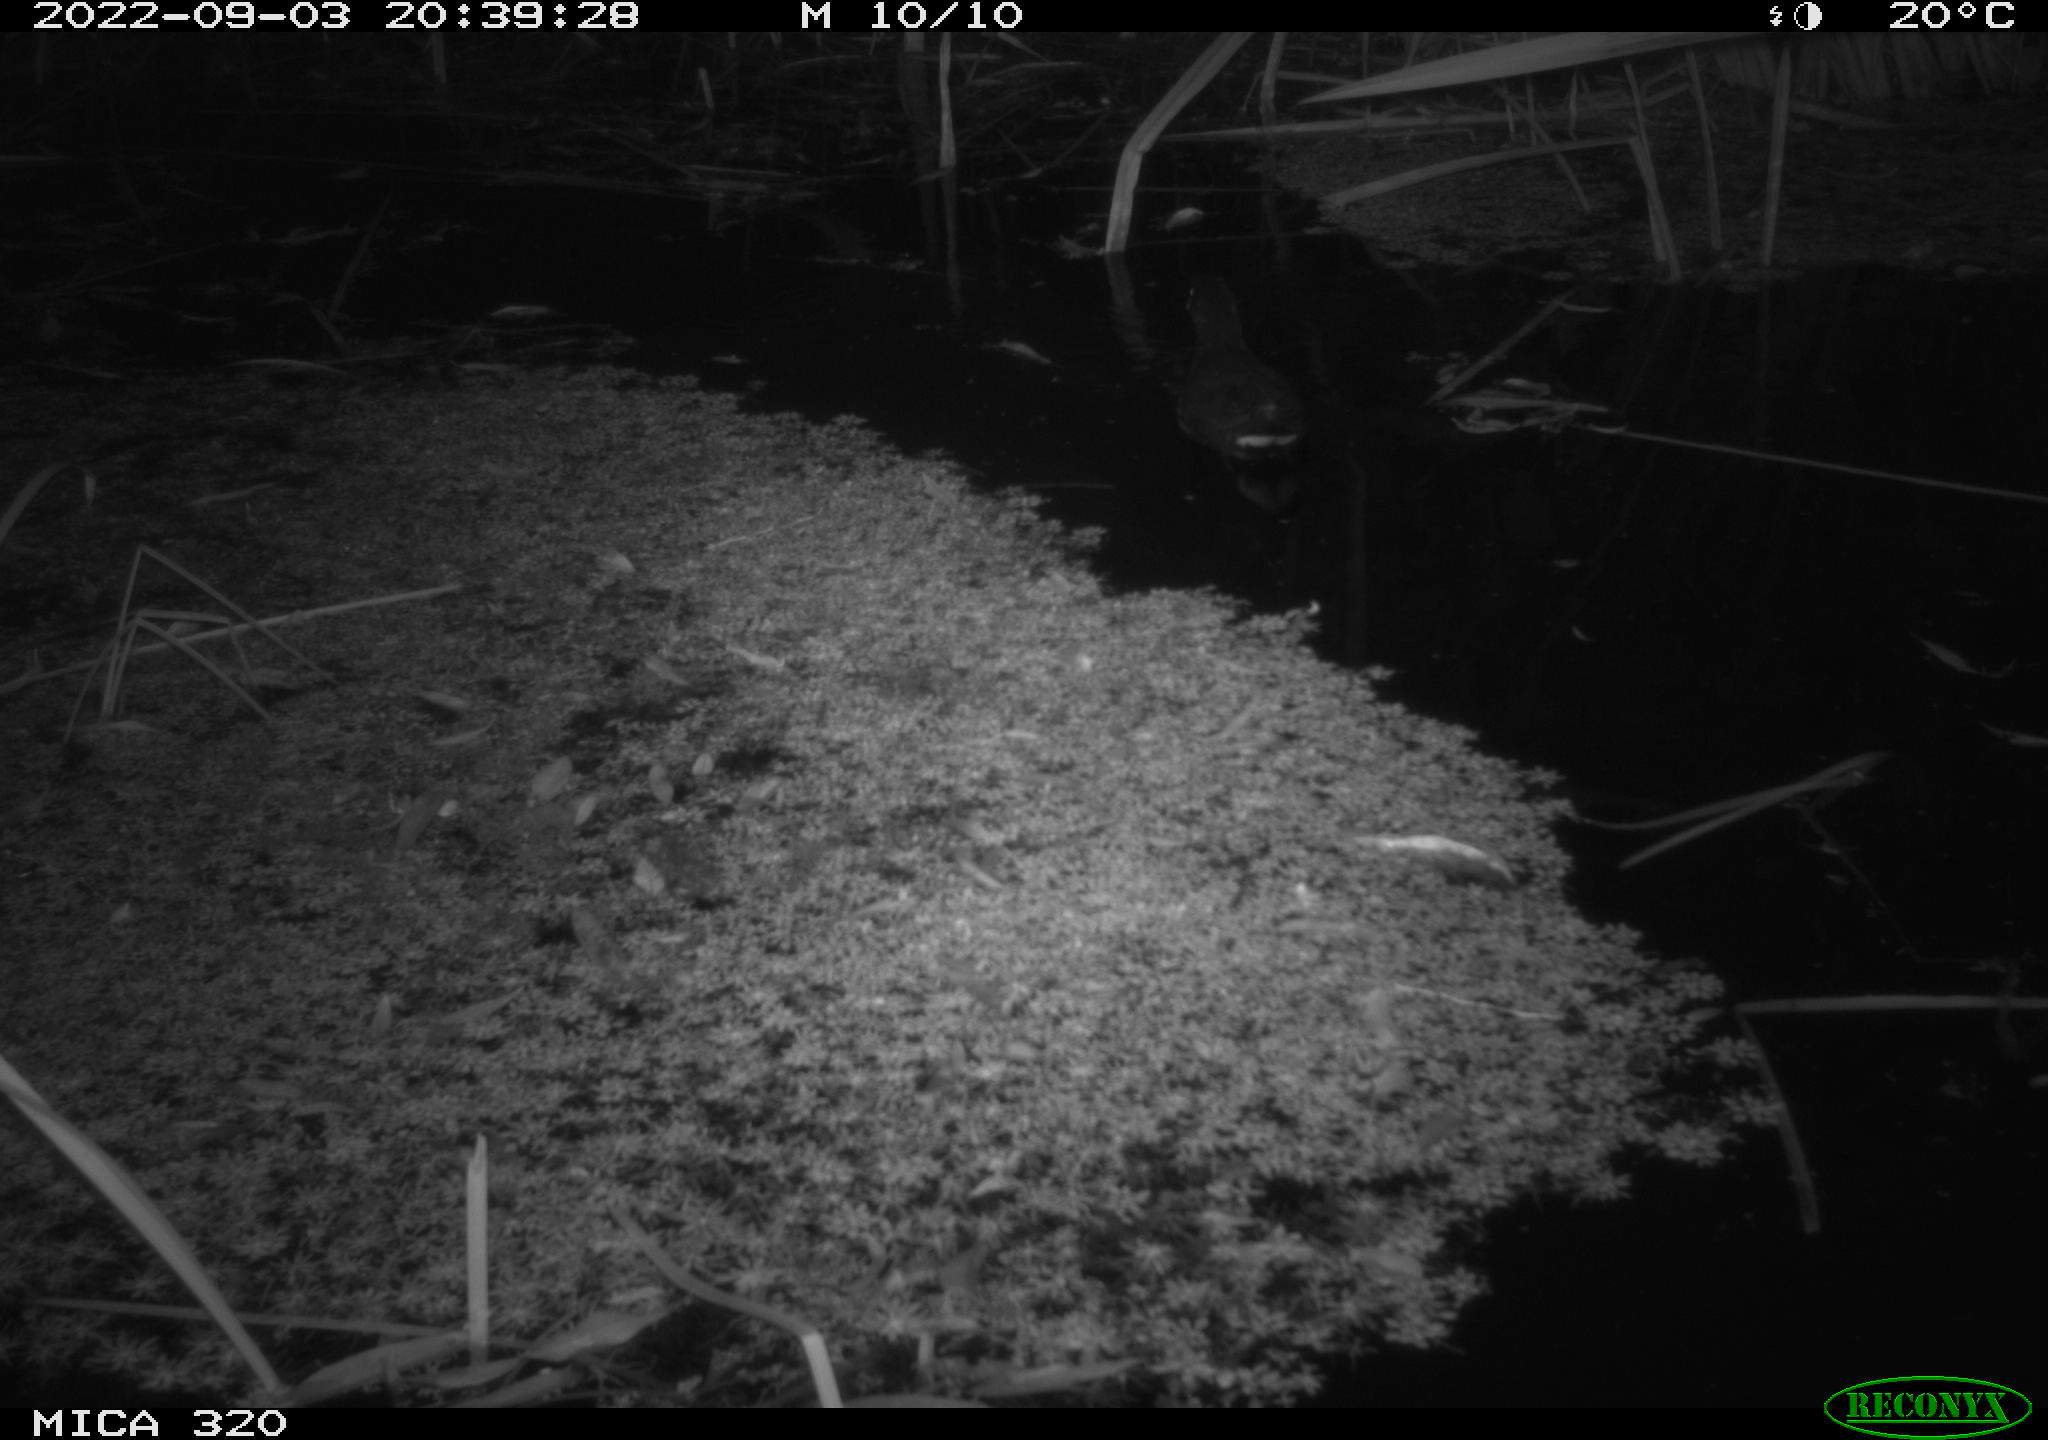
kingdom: Animalia
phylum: Chordata
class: Aves
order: Gruiformes
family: Rallidae
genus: Gallinula
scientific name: Gallinula chloropus
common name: Common moorhen
